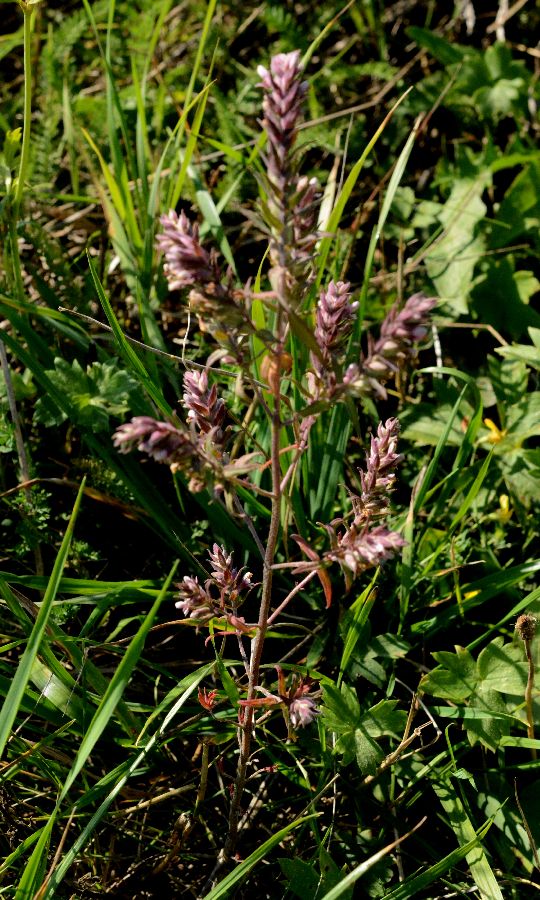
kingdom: Plantae
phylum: Tracheophyta
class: Magnoliopsida
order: Lamiales
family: Orobanchaceae
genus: Odontites
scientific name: Odontites vulgaris
